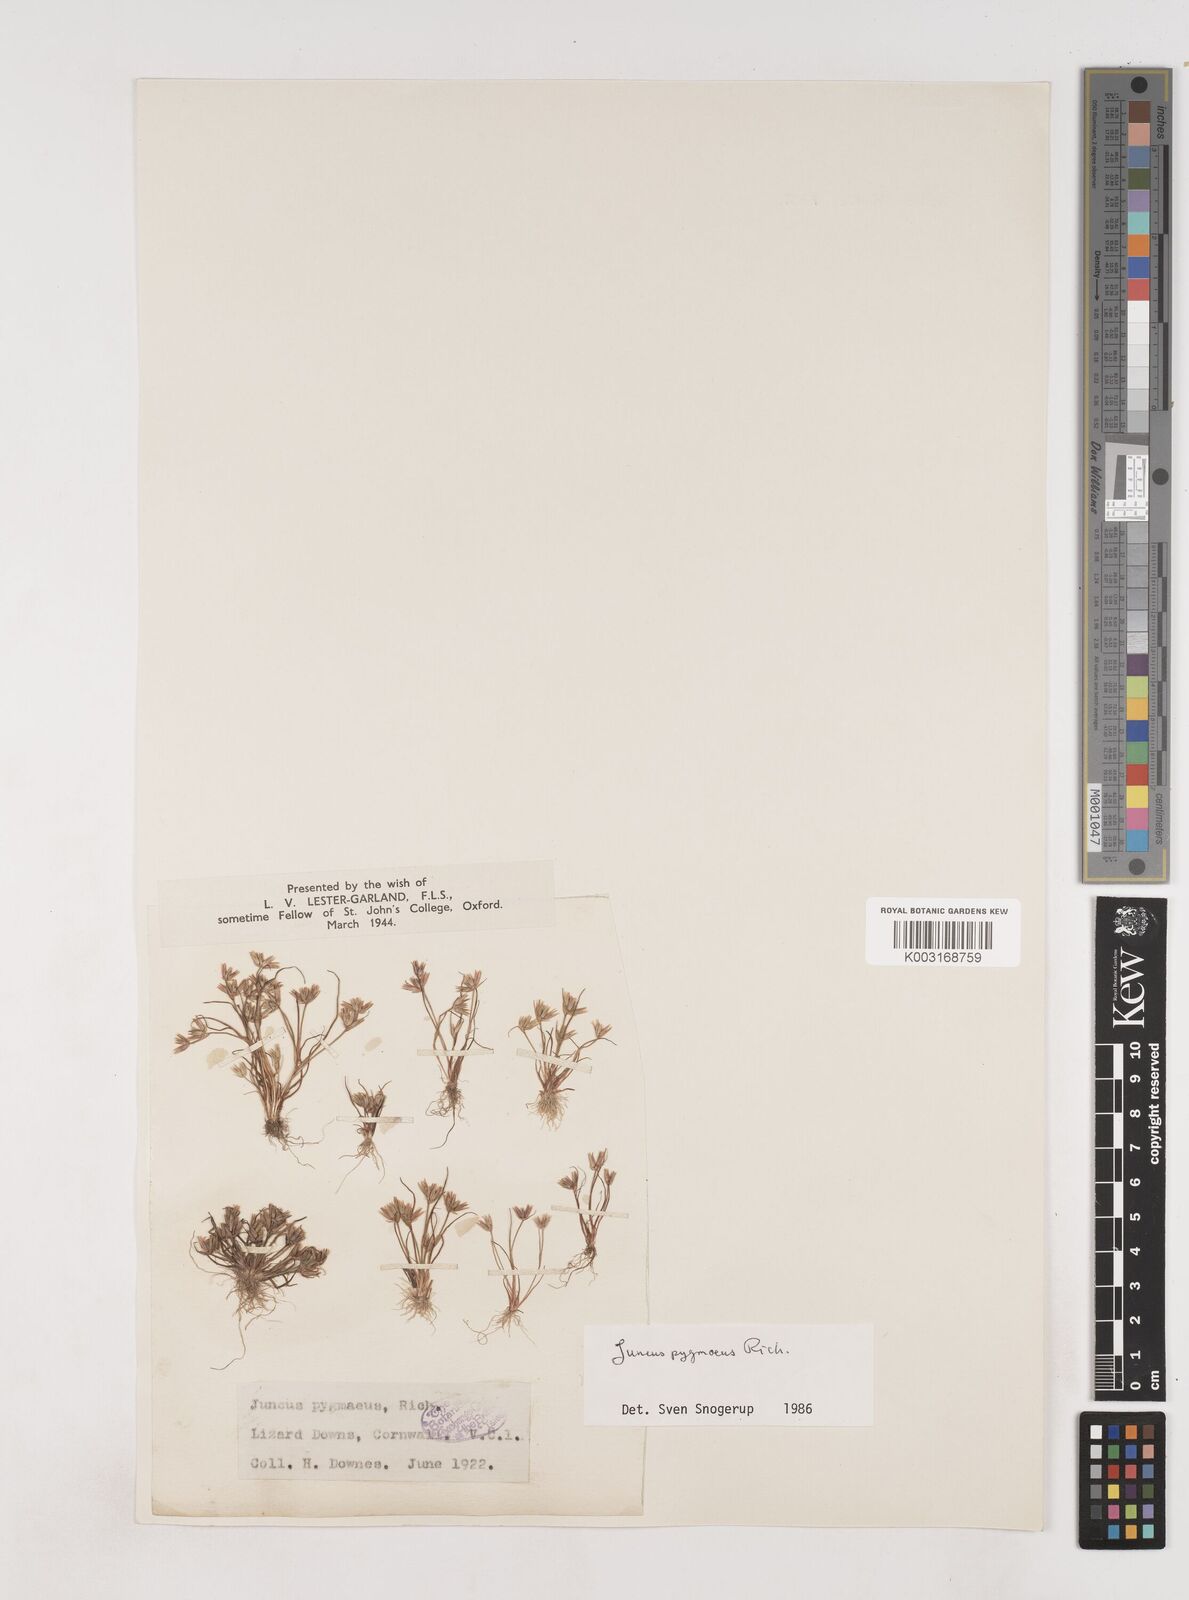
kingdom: Plantae
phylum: Tracheophyta
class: Liliopsida
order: Poales
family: Juncaceae
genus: Juncus
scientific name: Juncus pygmaeus
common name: Pigmy rush
